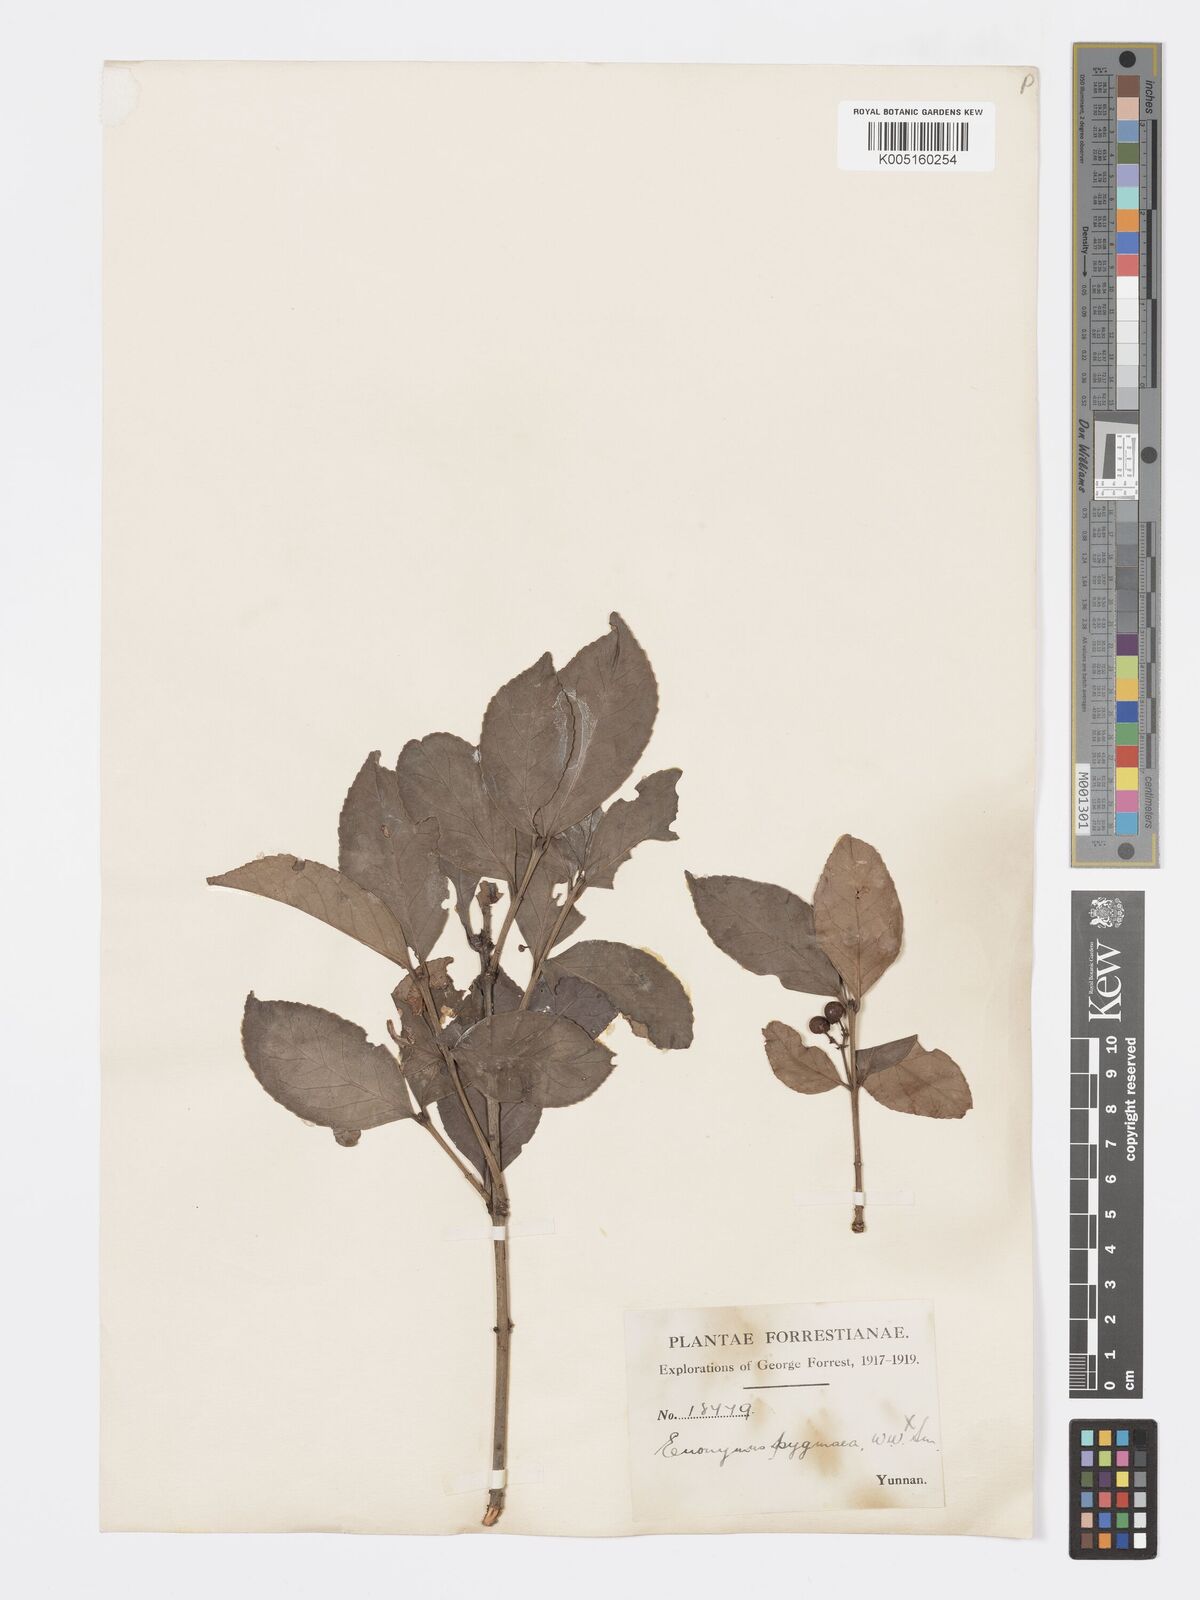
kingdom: Plantae
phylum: Tracheophyta
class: Magnoliopsida
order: Celastrales
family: Celastraceae
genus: Euonymus
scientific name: Euonymus bockii
